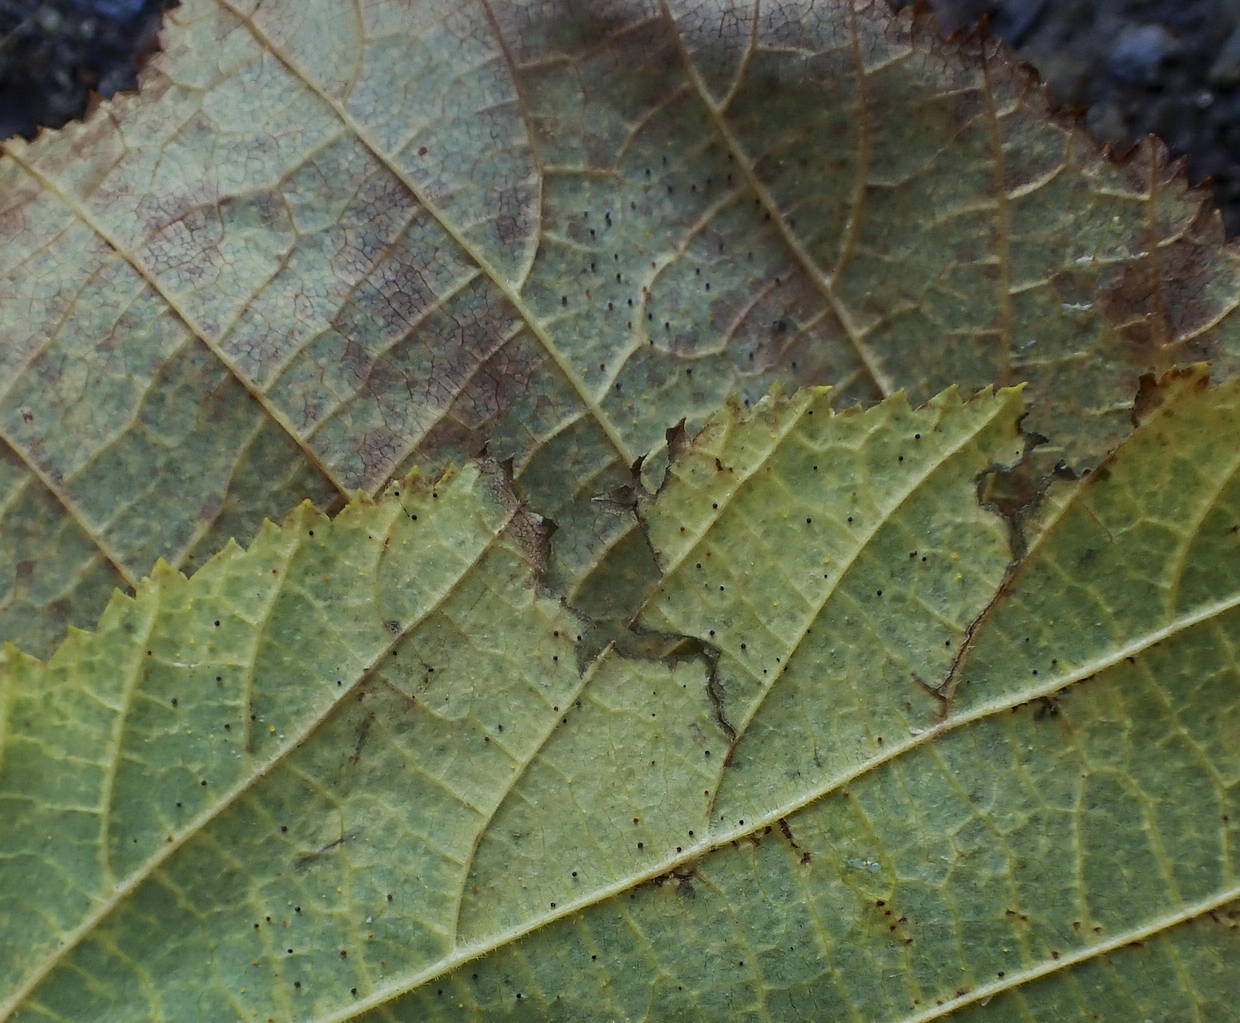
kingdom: Fungi
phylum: Ascomycota
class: Leotiomycetes
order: Helotiales
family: Erysiphaceae
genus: Phyllactinia
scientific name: Phyllactinia guttata
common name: hassel-meldug
